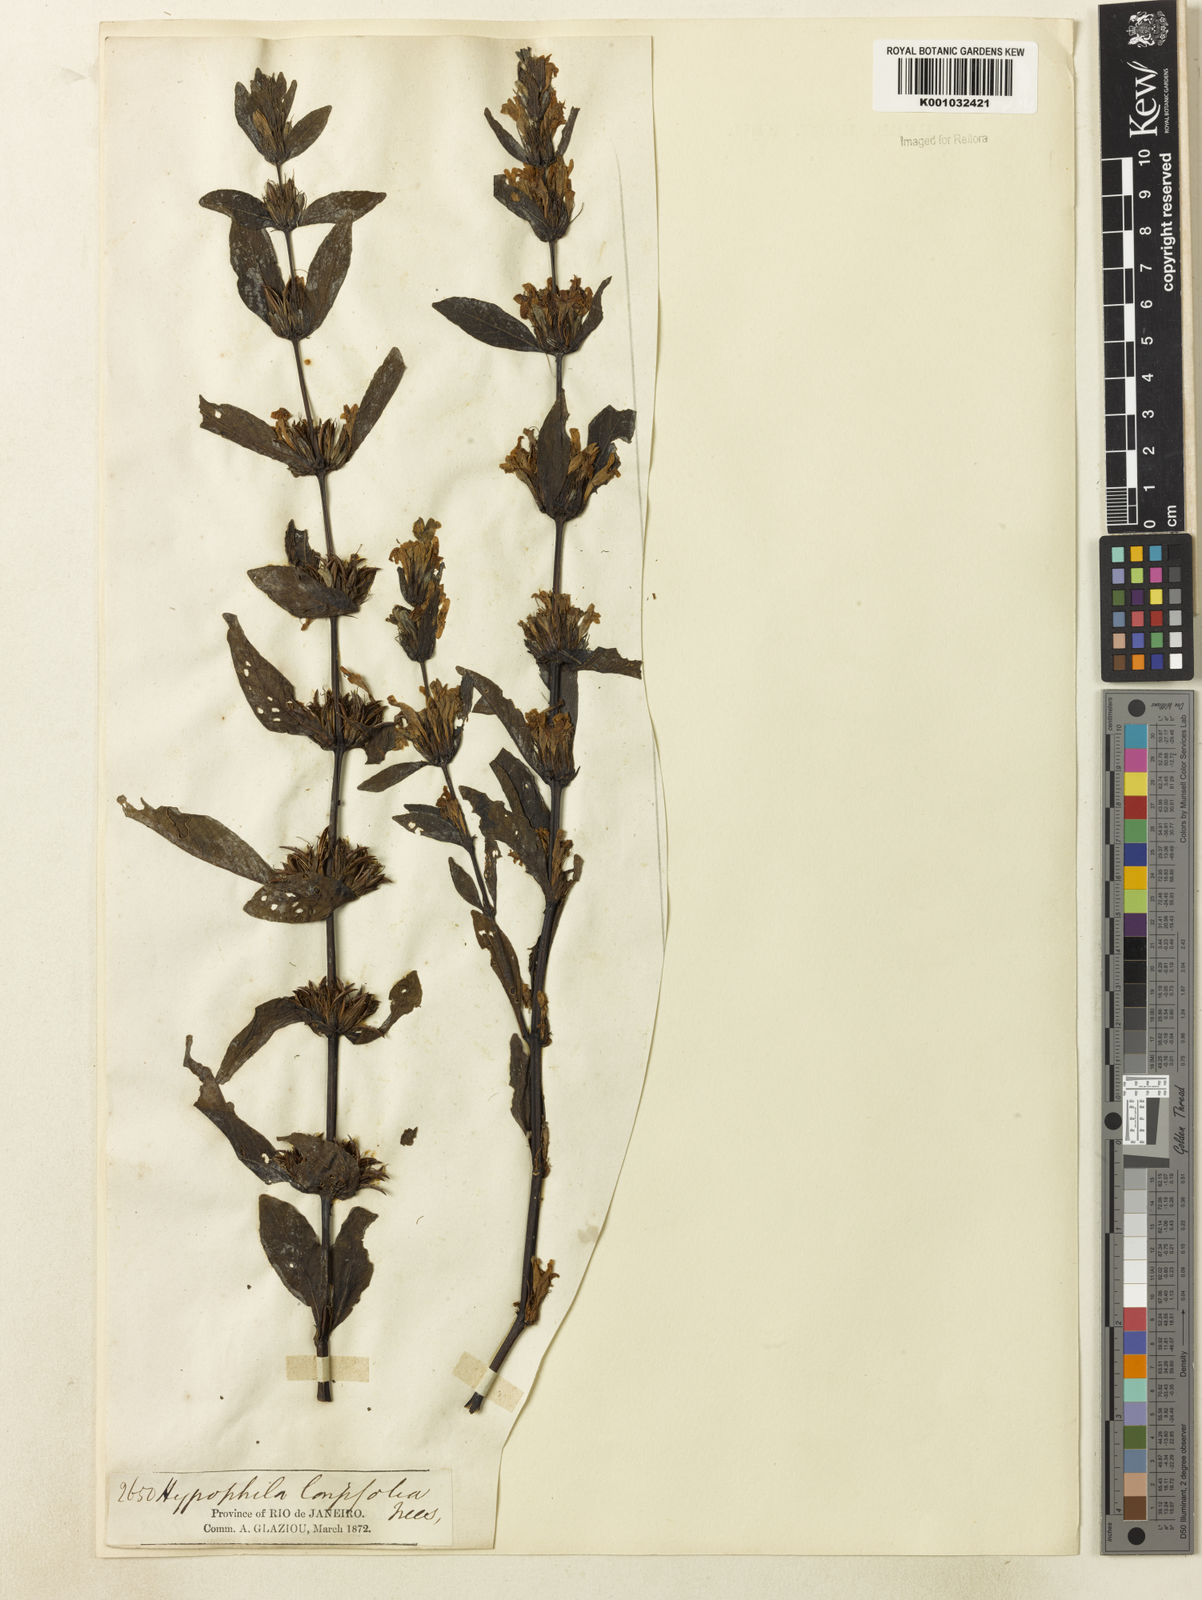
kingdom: Plantae
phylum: Tracheophyta
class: Magnoliopsida
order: Lamiales
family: Acanthaceae
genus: Hygrophila
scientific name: Hygrophila costata
